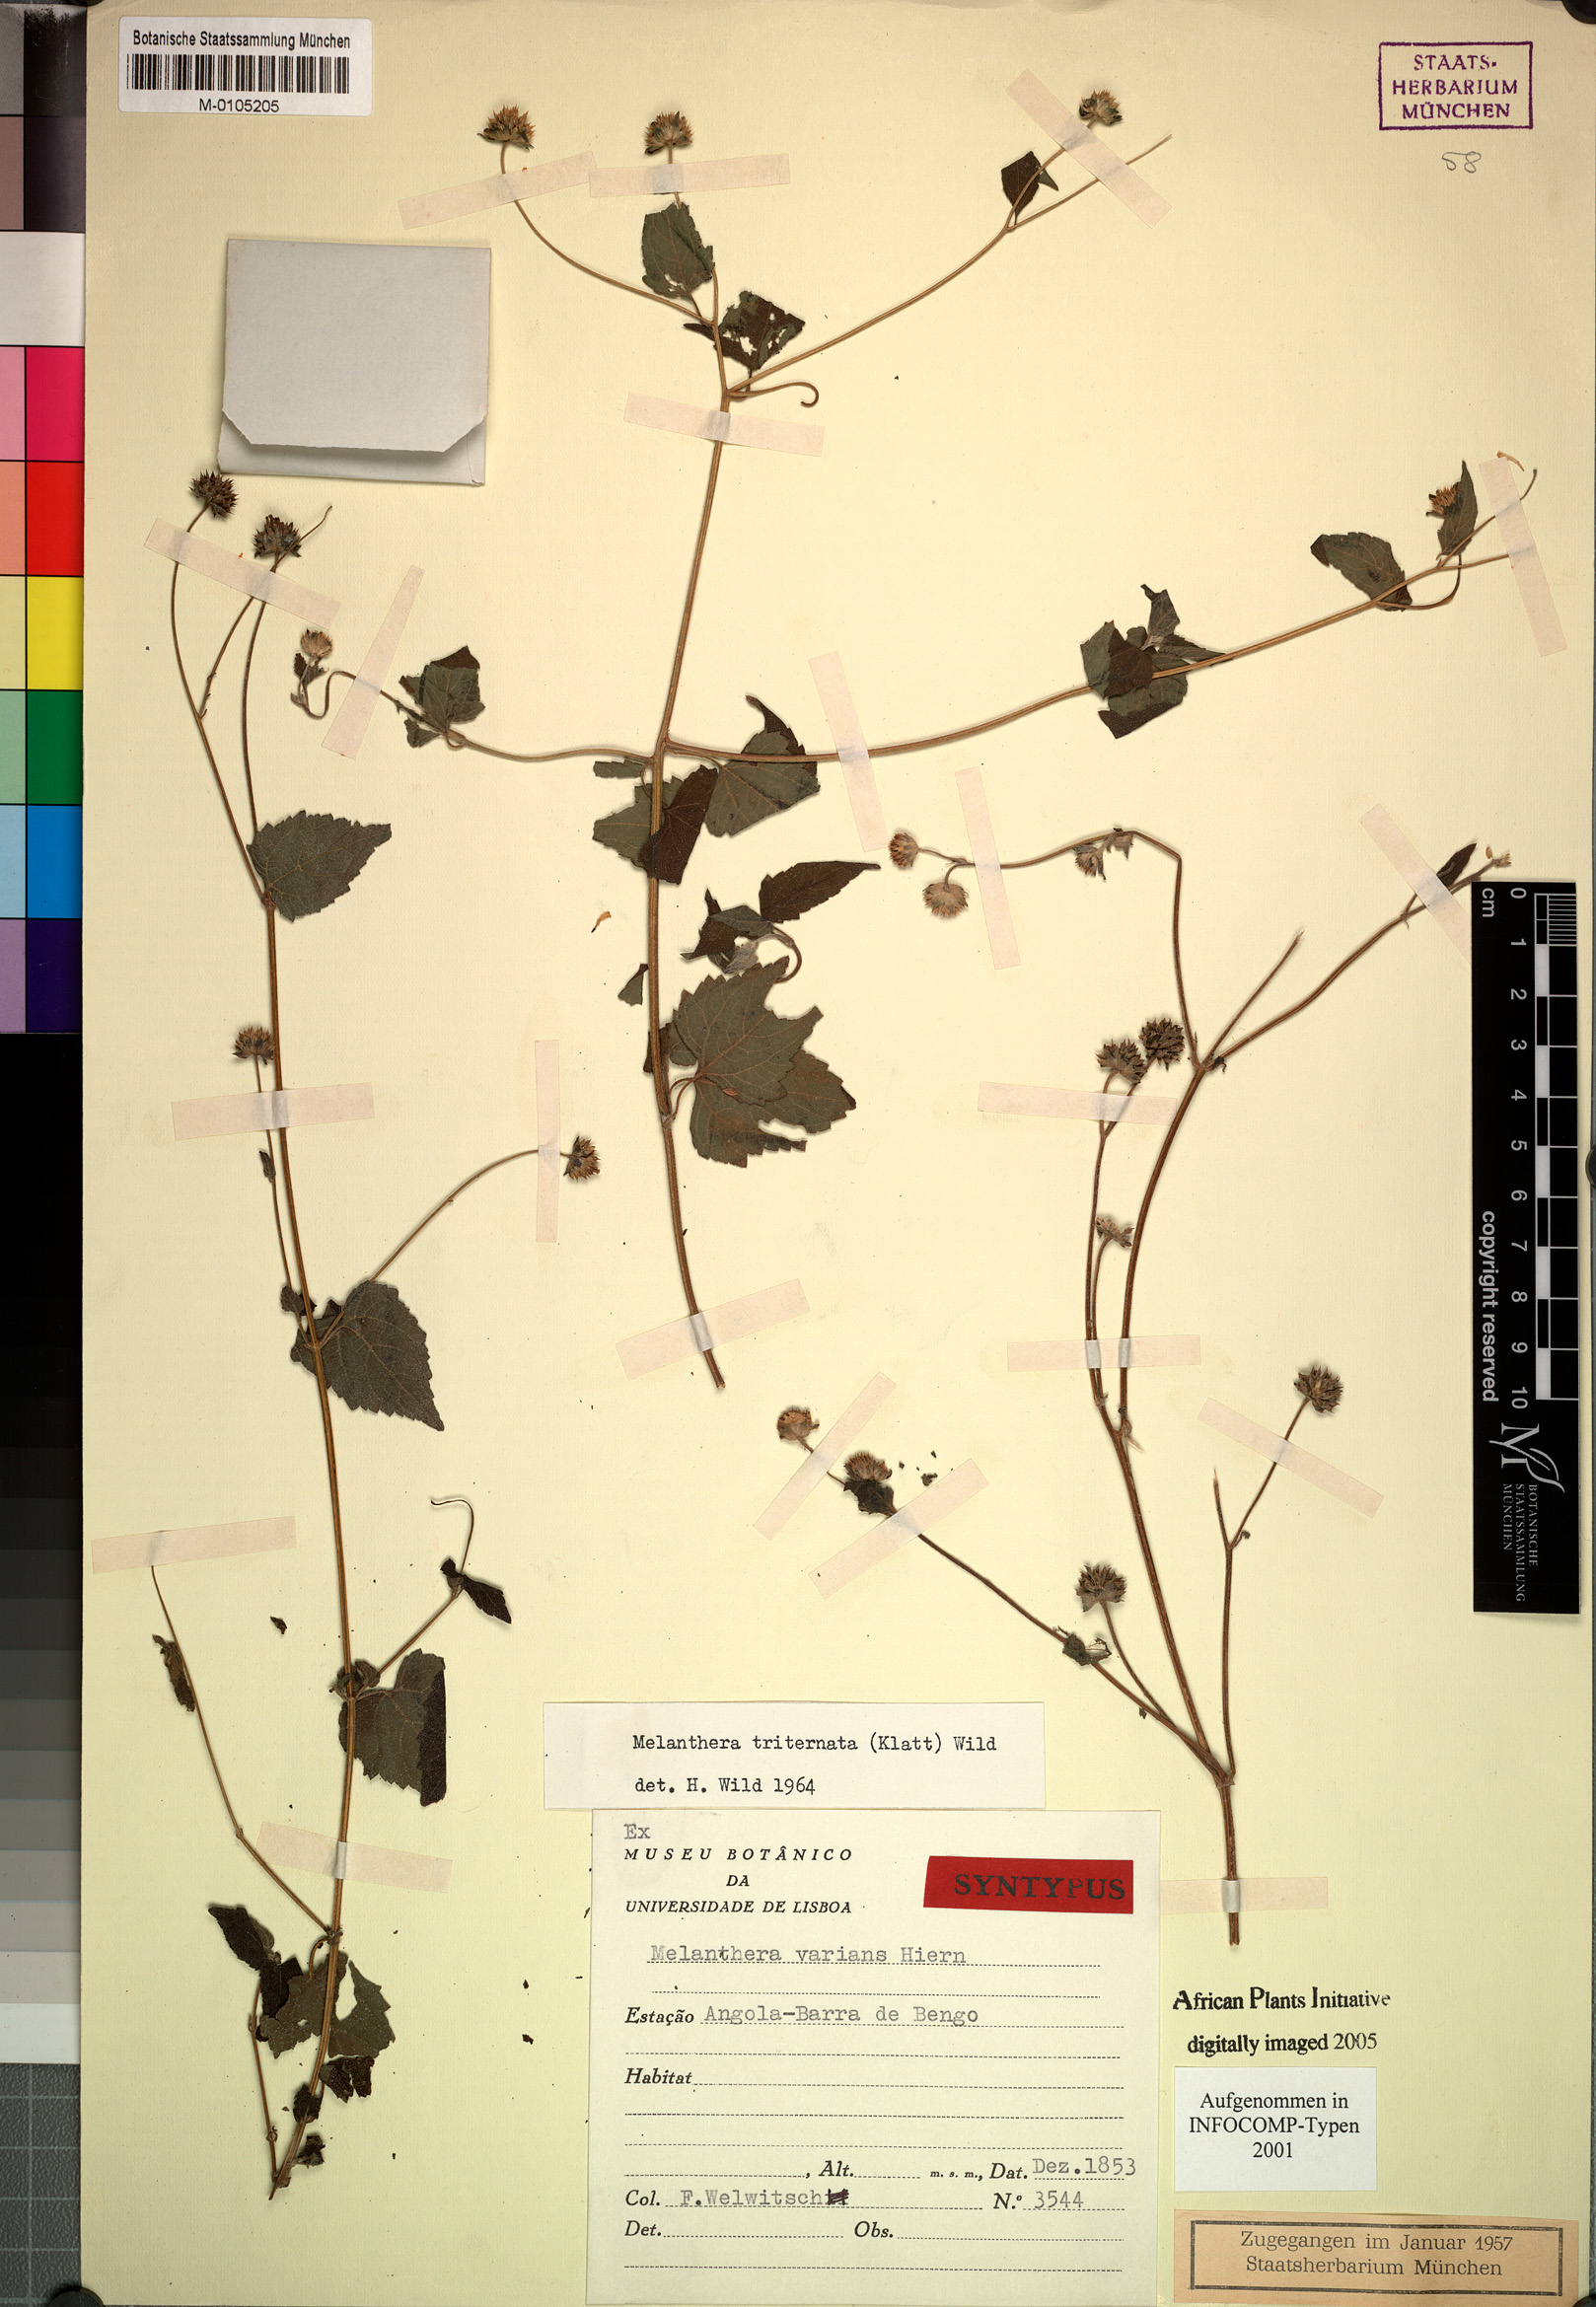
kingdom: Plantae
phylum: Tracheophyta
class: Magnoliopsida
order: Asterales
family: Asteraceae
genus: Lipotriche
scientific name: Lipotriche marlothiana
